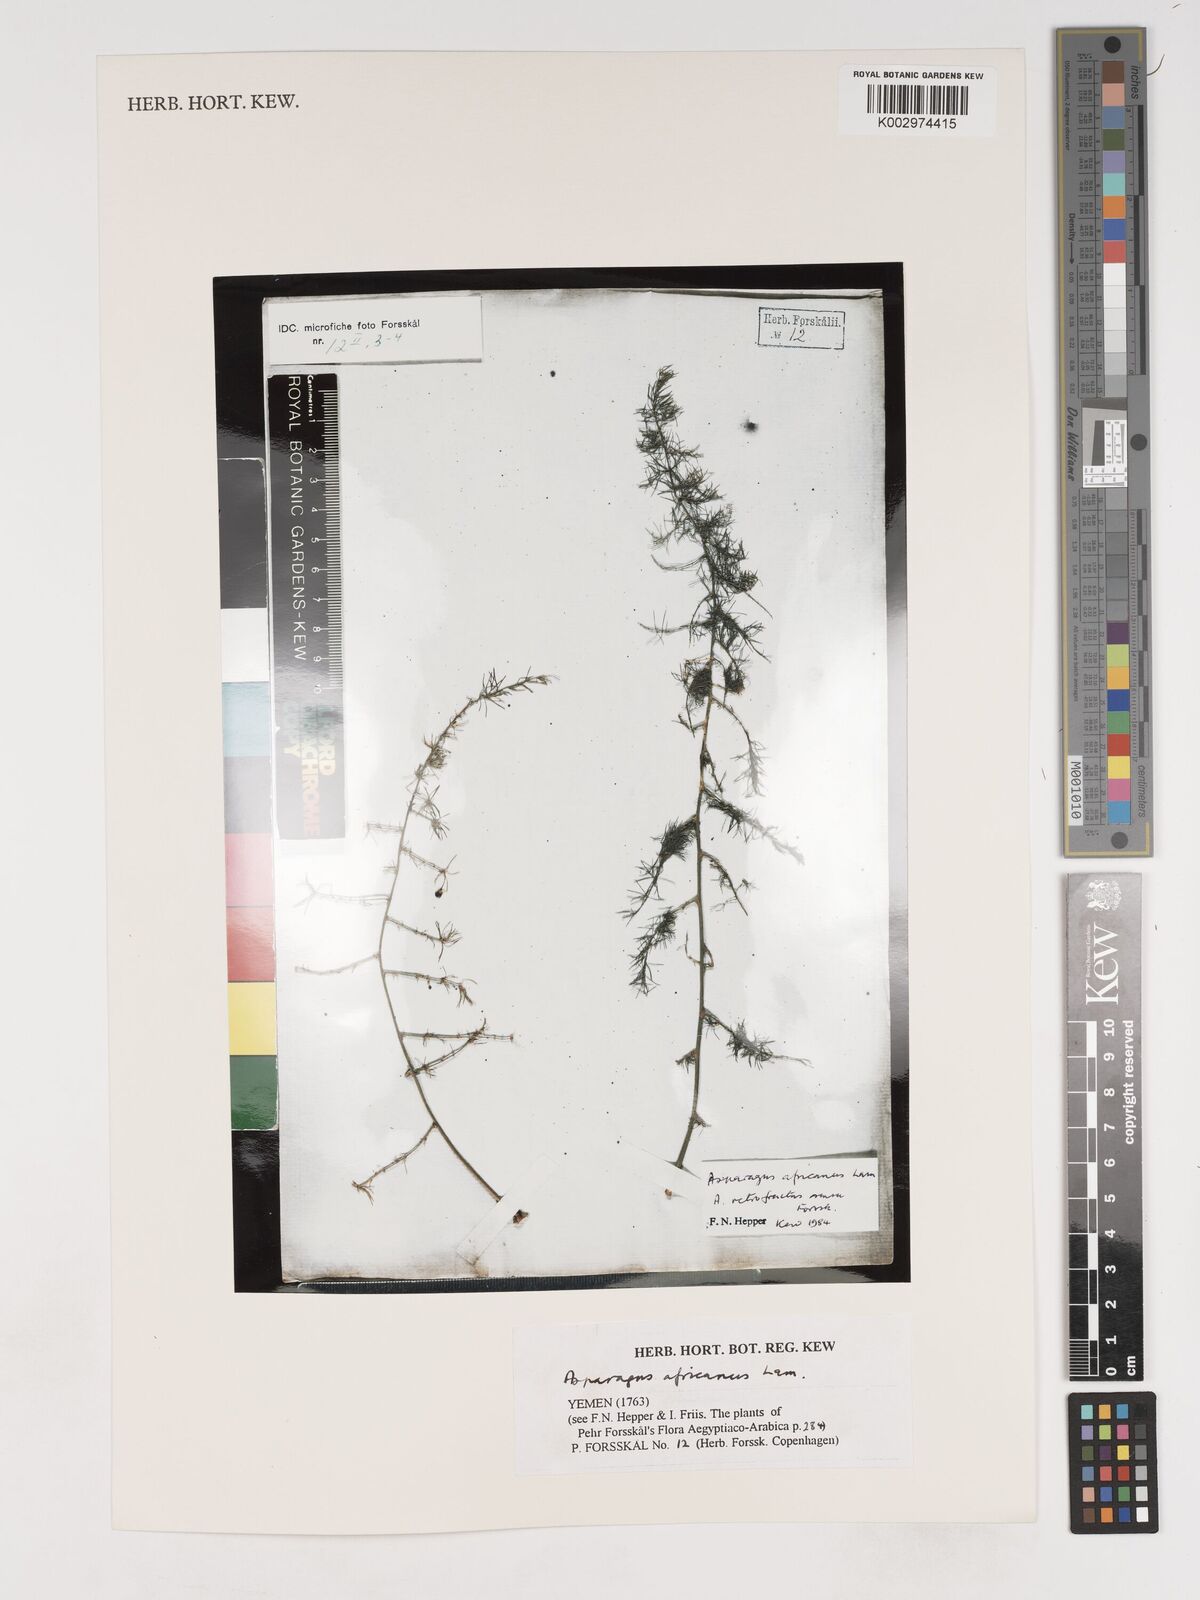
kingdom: Plantae
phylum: Tracheophyta
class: Liliopsida
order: Asparagales
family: Asparagaceae
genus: Asparagus
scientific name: Asparagus africanus
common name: Asparagus-fern
